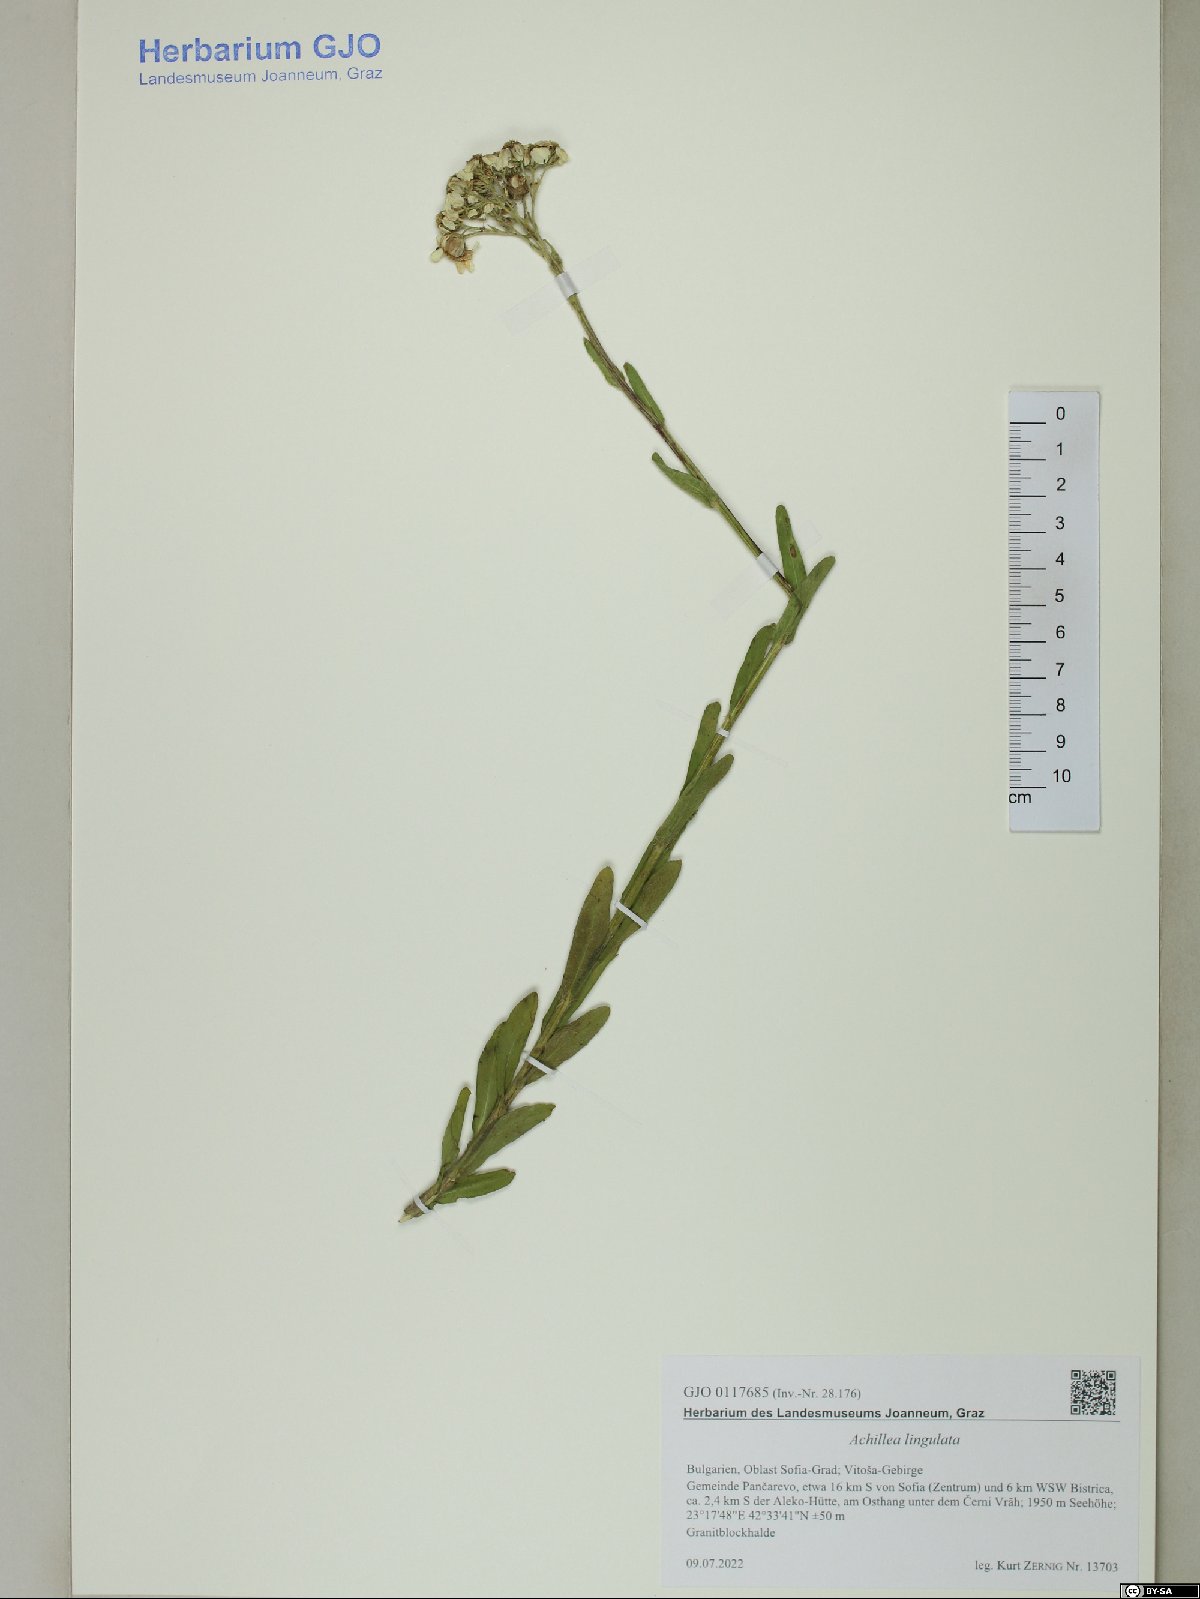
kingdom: Plantae
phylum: Tracheophyta
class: Magnoliopsida
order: Asterales
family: Asteraceae
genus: Achillea
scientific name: Achillea lingulata
